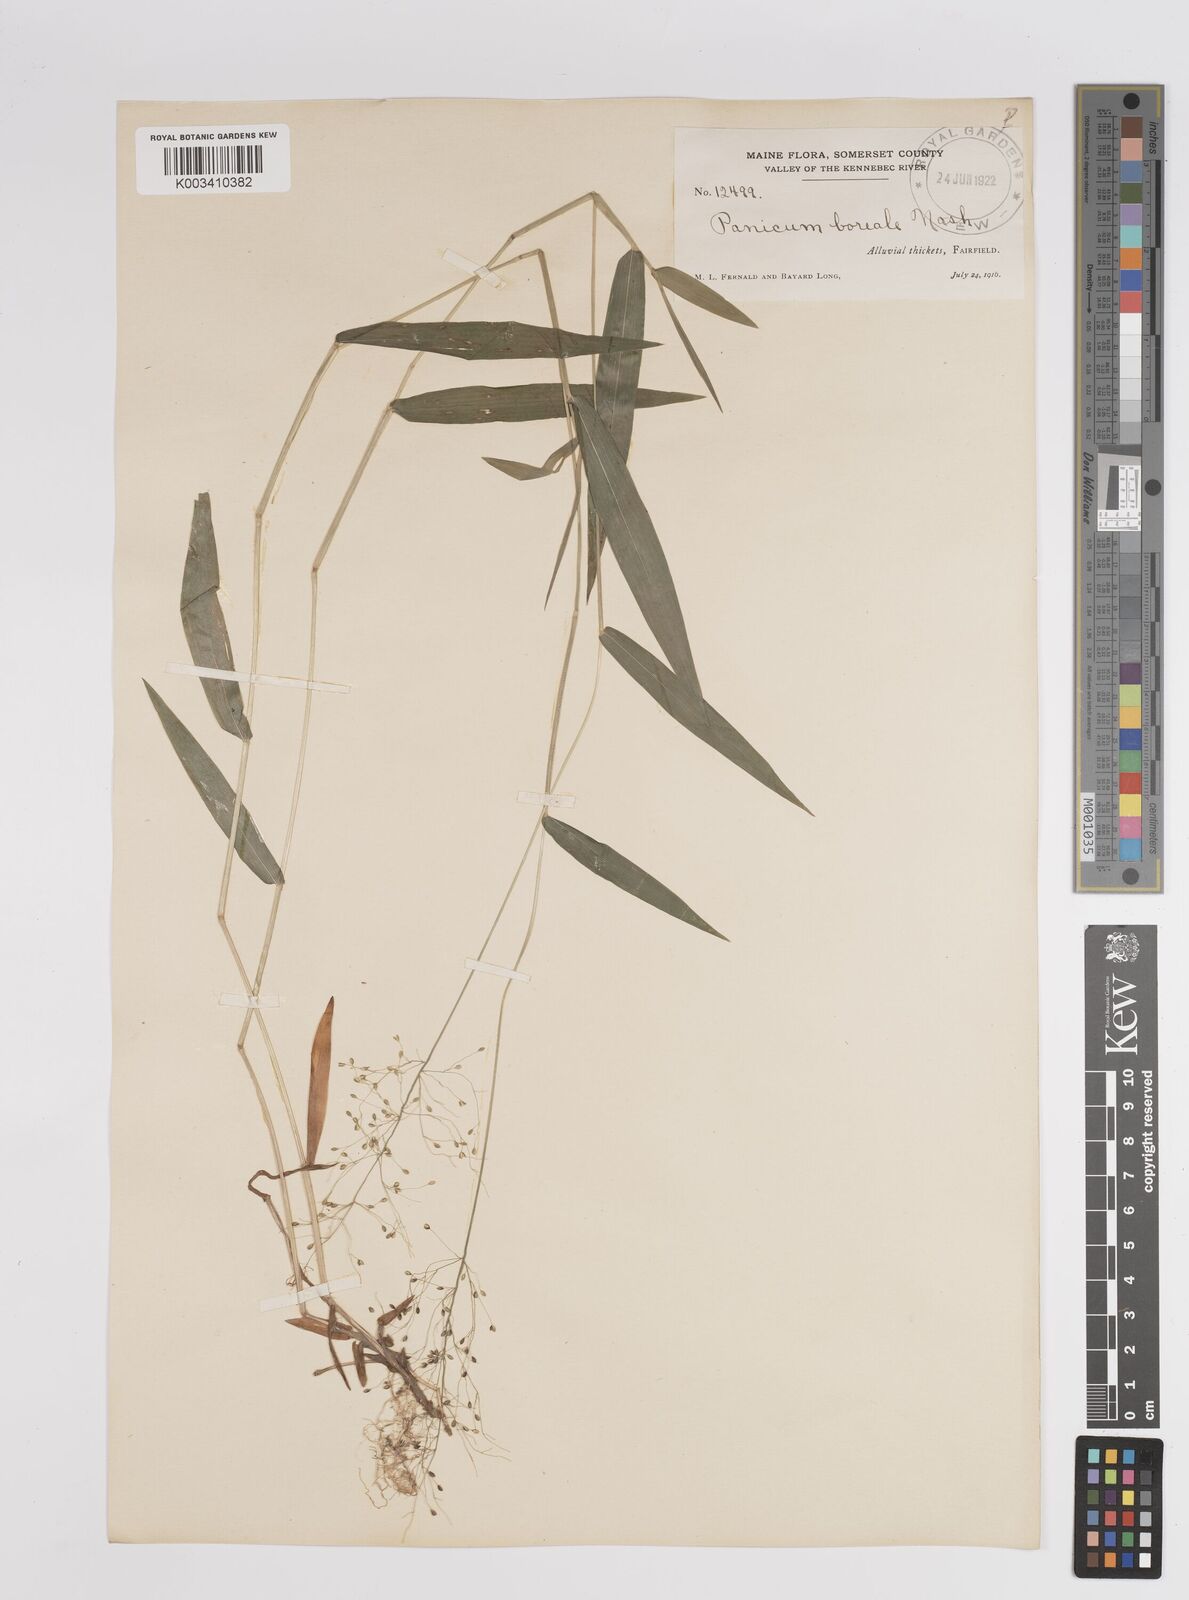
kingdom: Plantae
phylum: Tracheophyta
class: Liliopsida
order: Poales
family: Poaceae
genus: Dichanthelium
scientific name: Dichanthelium boreale
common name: Northern panicgrass
